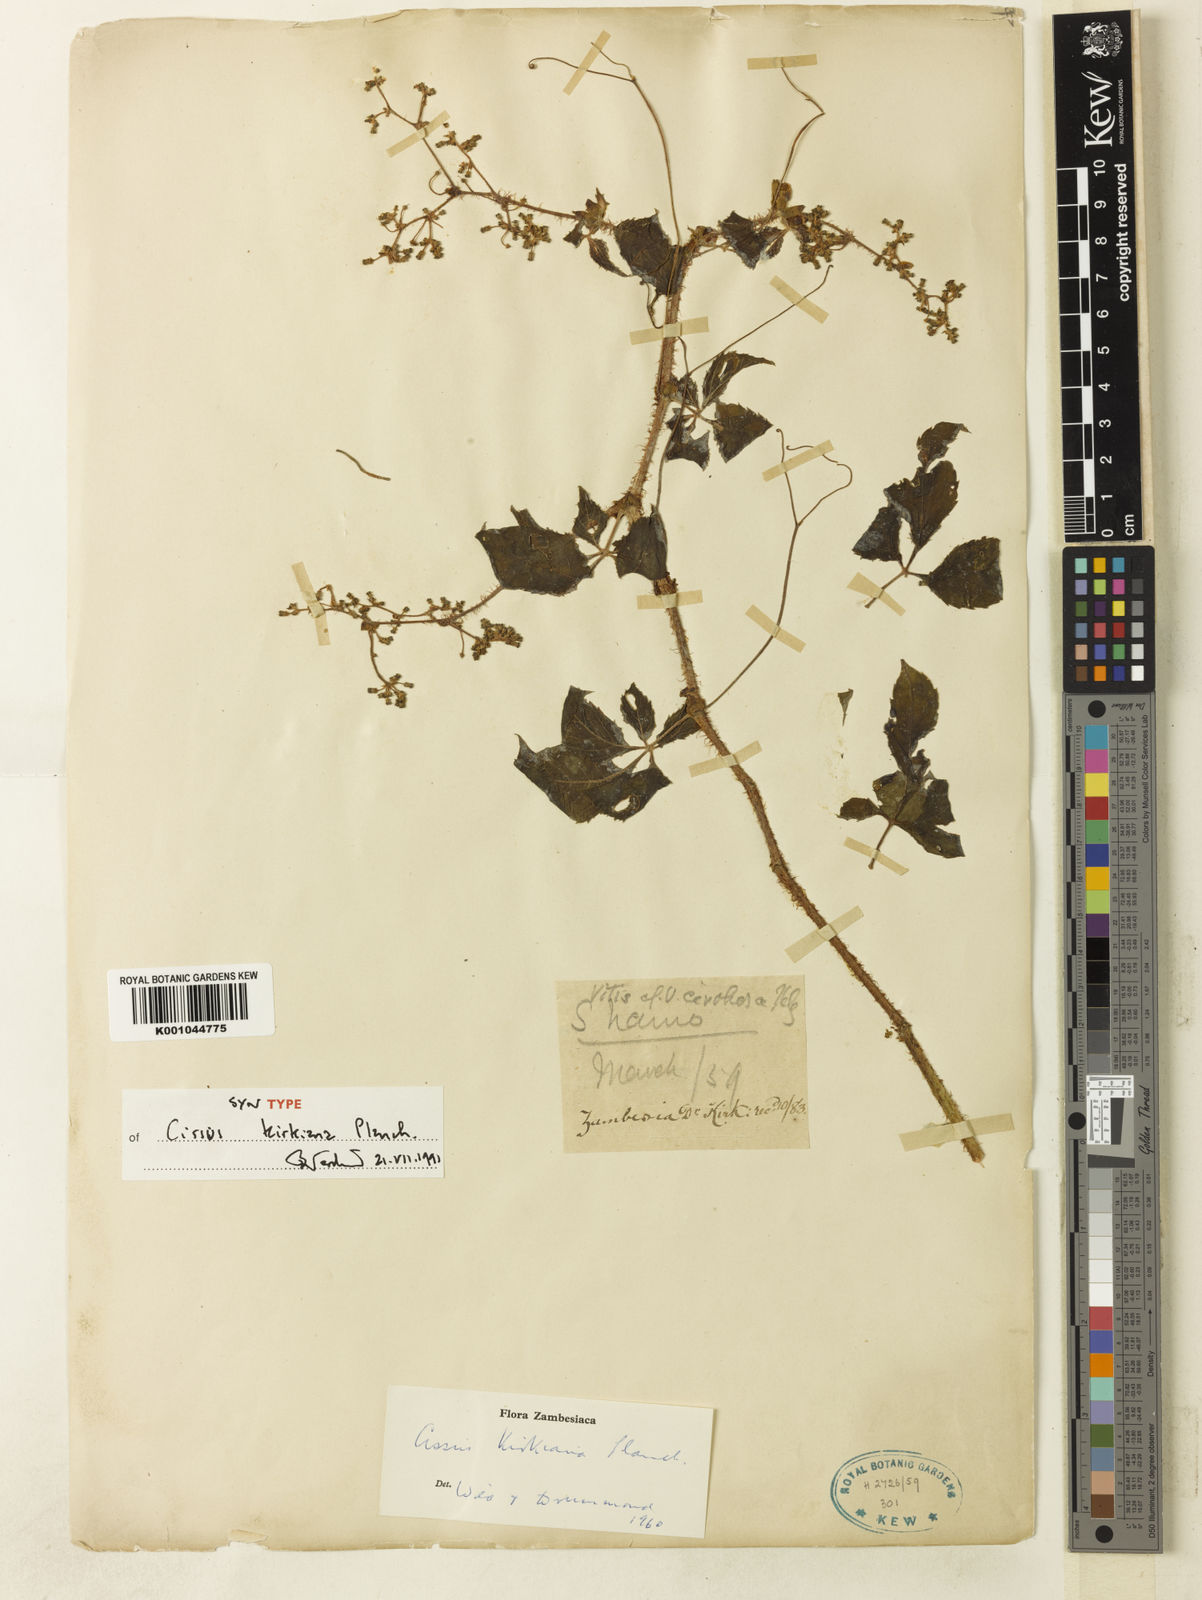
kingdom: Plantae
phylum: Tracheophyta
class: Magnoliopsida
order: Vitales
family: Vitaceae
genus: Cyphostemma
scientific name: Cyphostemma kirkianum
